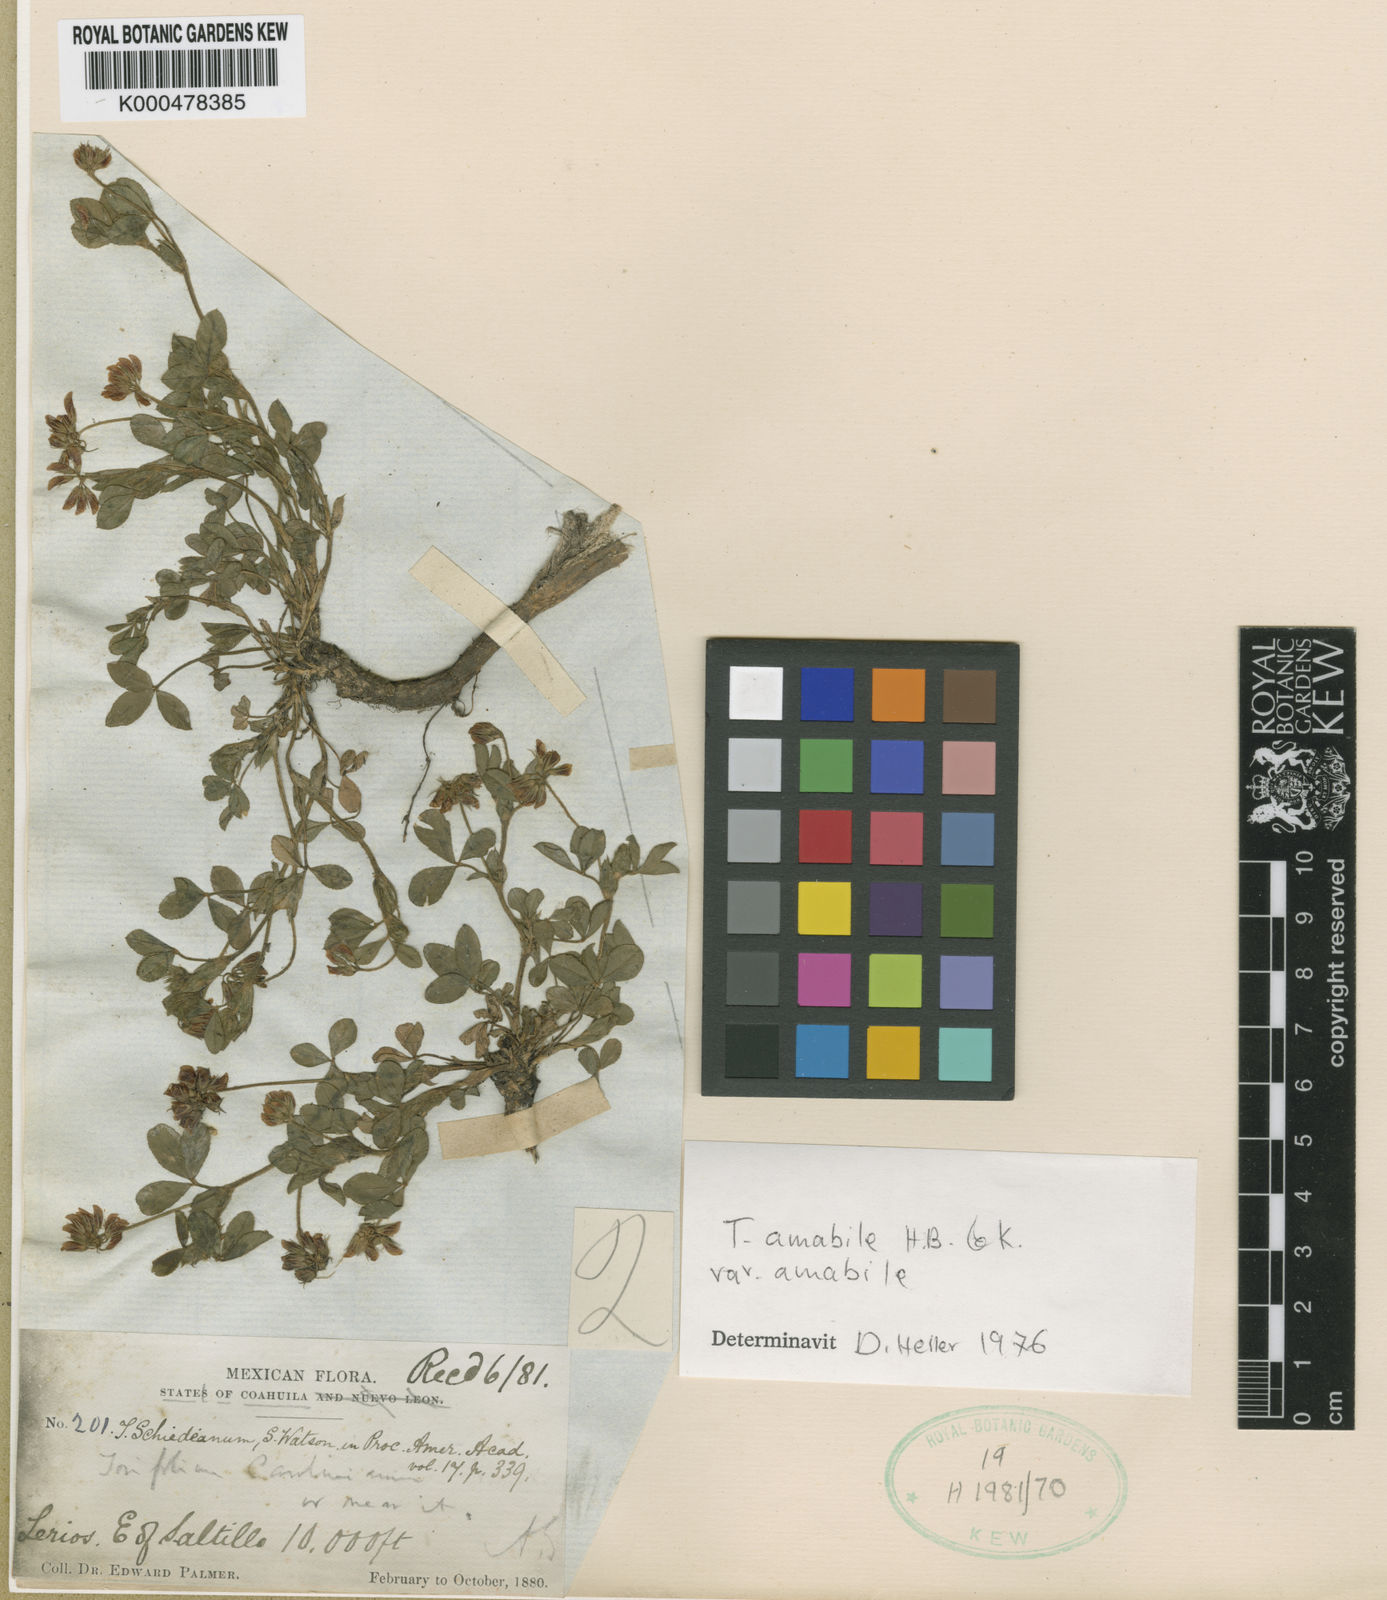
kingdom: Plantae
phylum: Tracheophyta
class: Magnoliopsida
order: Fabales
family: Fabaceae
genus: Trifolium
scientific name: Trifolium amabile
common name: Aztec clover
